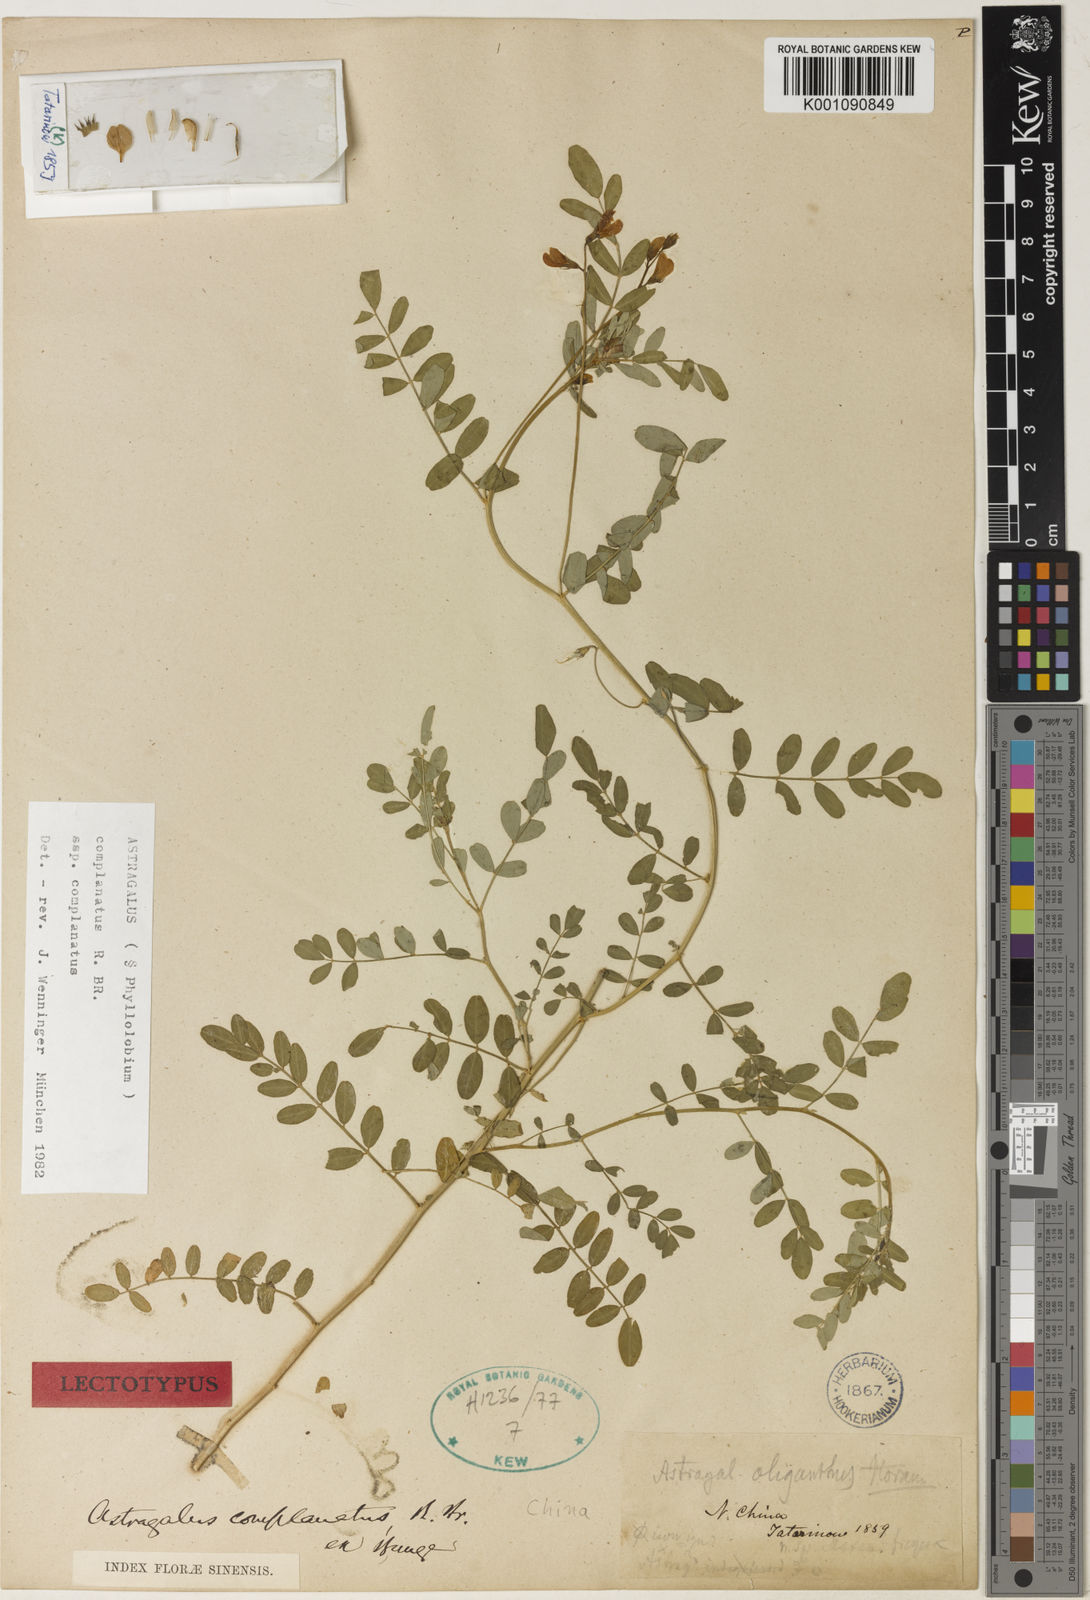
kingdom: Plantae
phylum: Tracheophyta
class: Magnoliopsida
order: Fabales
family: Fabaceae
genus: Phyllolobium
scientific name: Phyllolobium chinense
